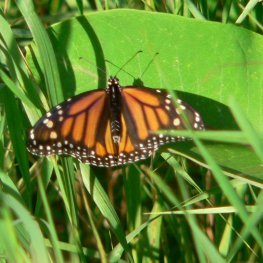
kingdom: Animalia
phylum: Arthropoda
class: Insecta
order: Lepidoptera
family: Nymphalidae
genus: Danaus
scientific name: Danaus plexippus
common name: Monarch
